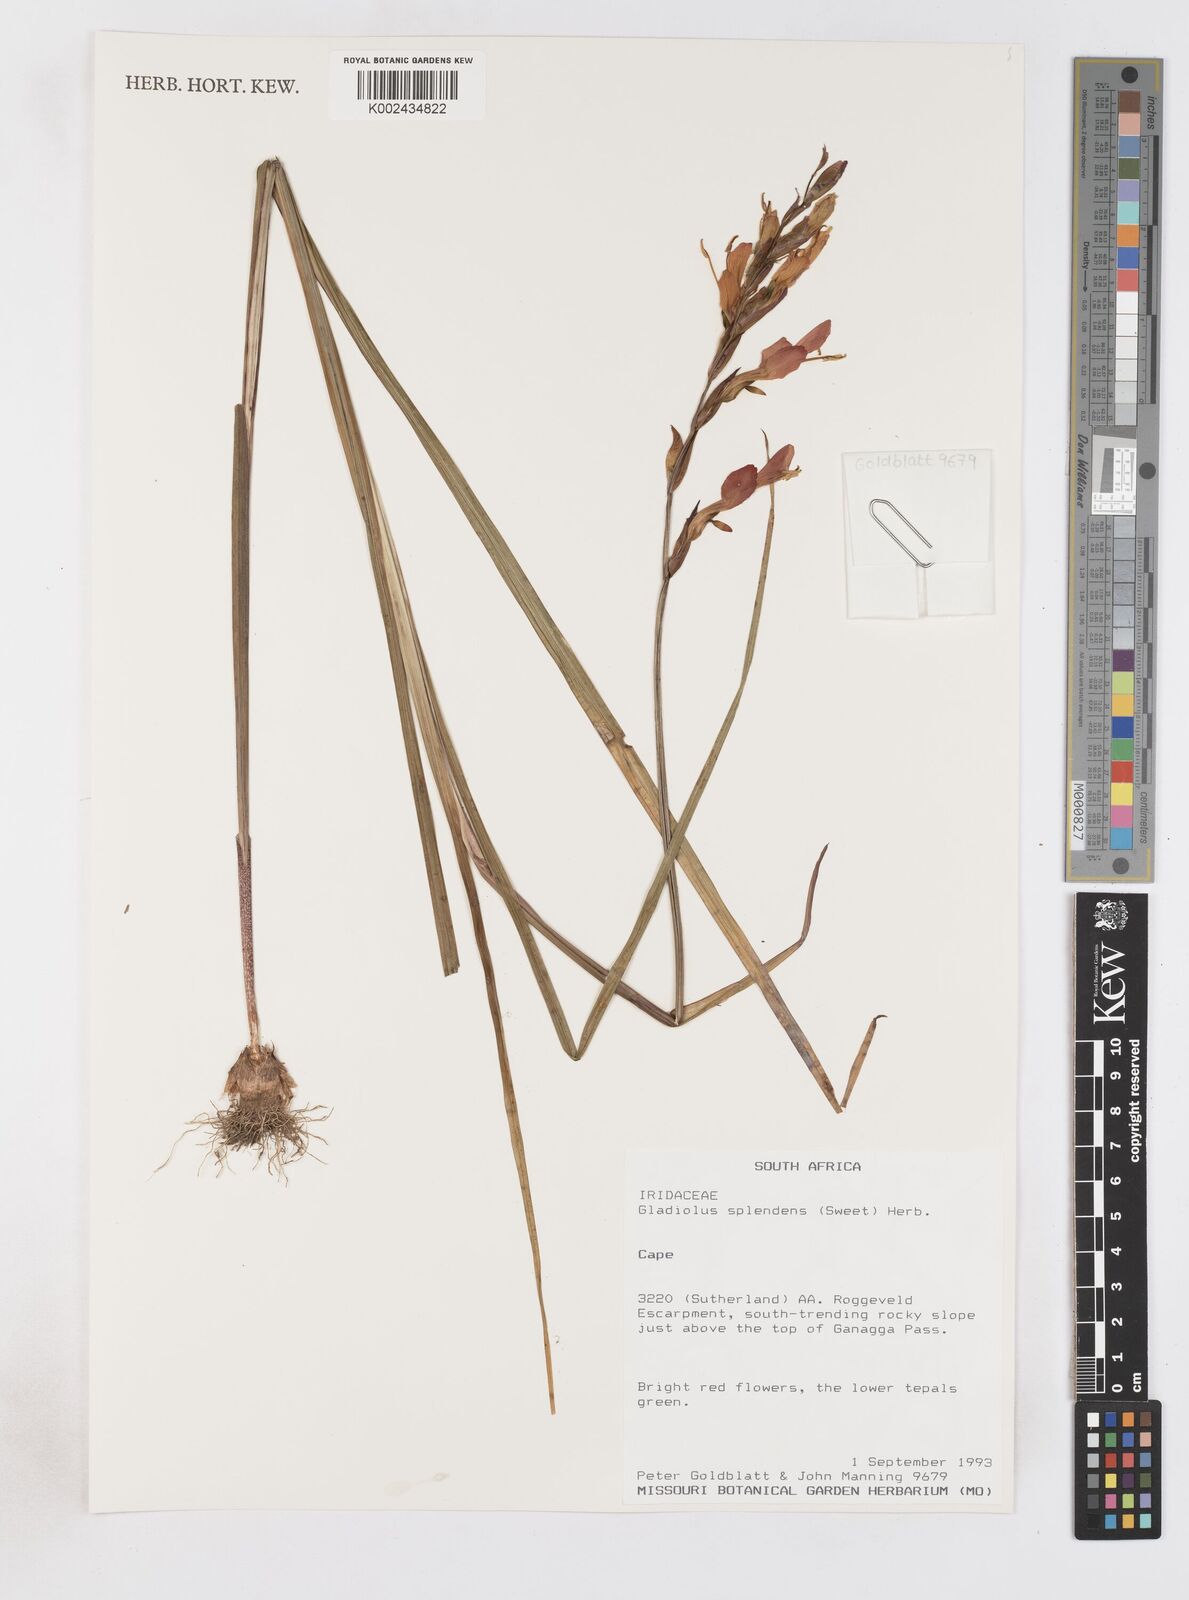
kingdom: Plantae
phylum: Tracheophyta
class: Liliopsida
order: Asparagales
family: Iridaceae
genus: Gladiolus
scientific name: Gladiolus splendens
